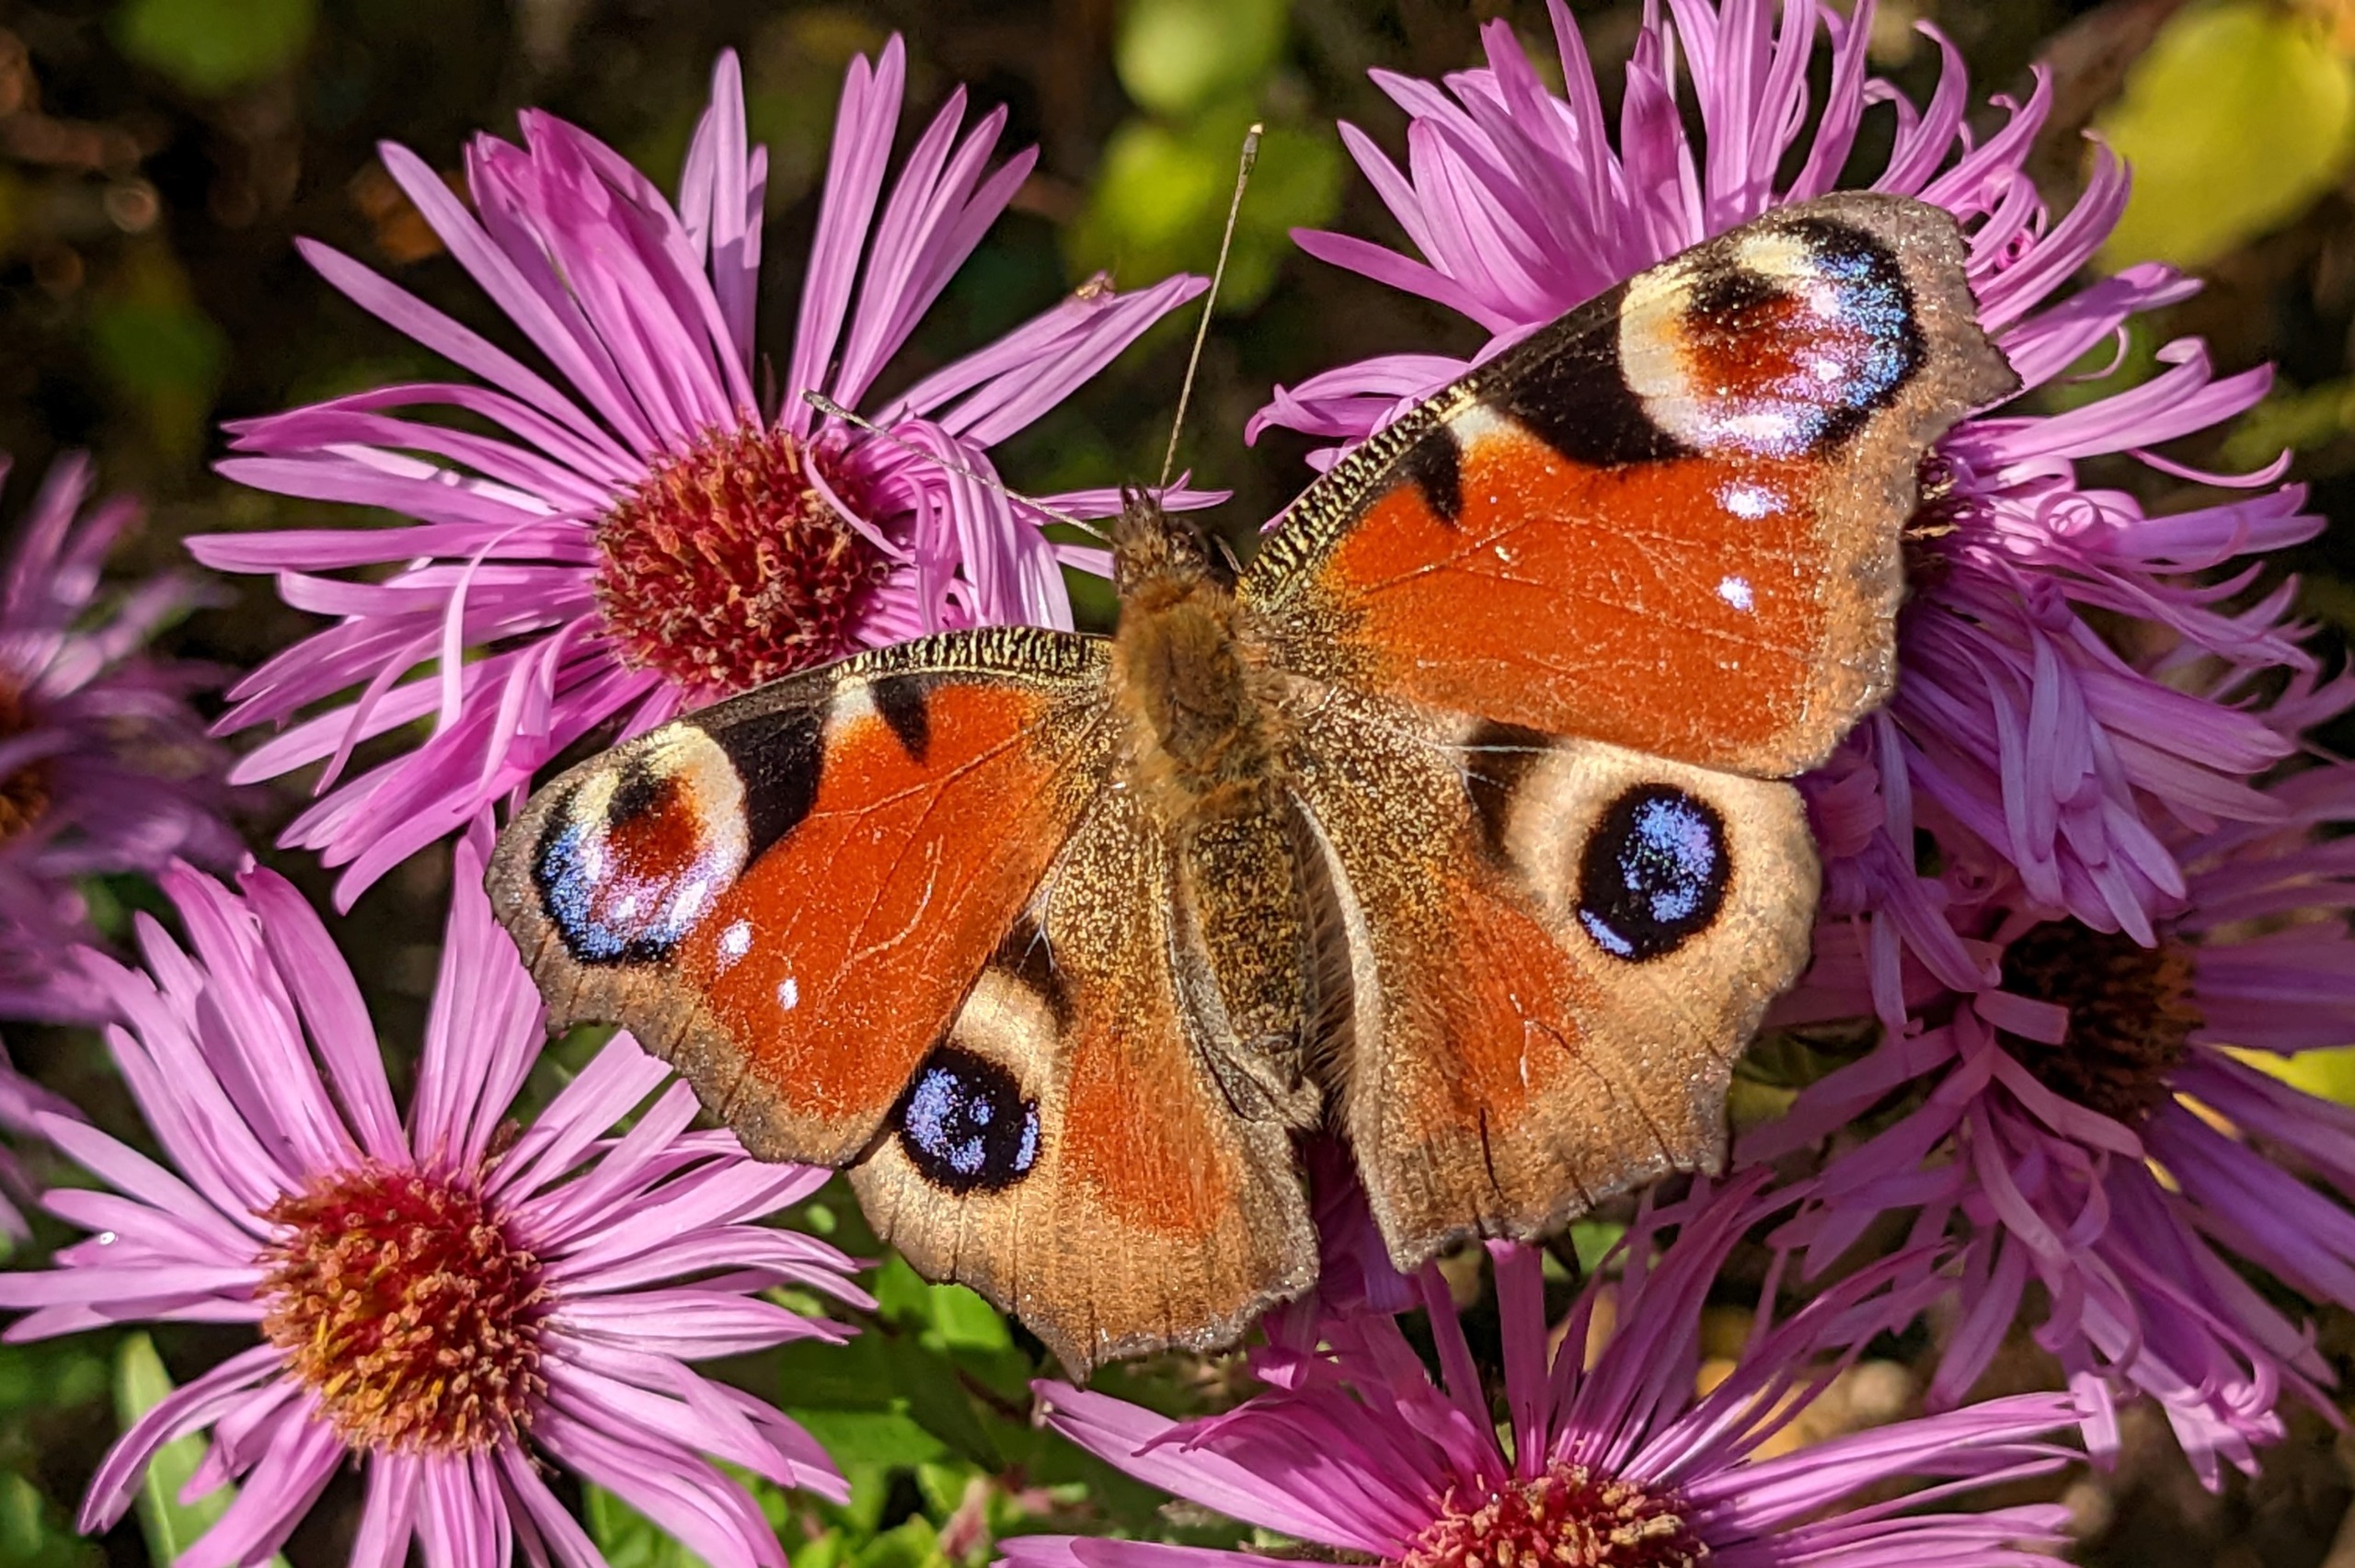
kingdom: Animalia
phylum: Arthropoda
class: Insecta
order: Lepidoptera
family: Nymphalidae
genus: Aglais
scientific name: Aglais io
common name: Dagpåfugleøje
